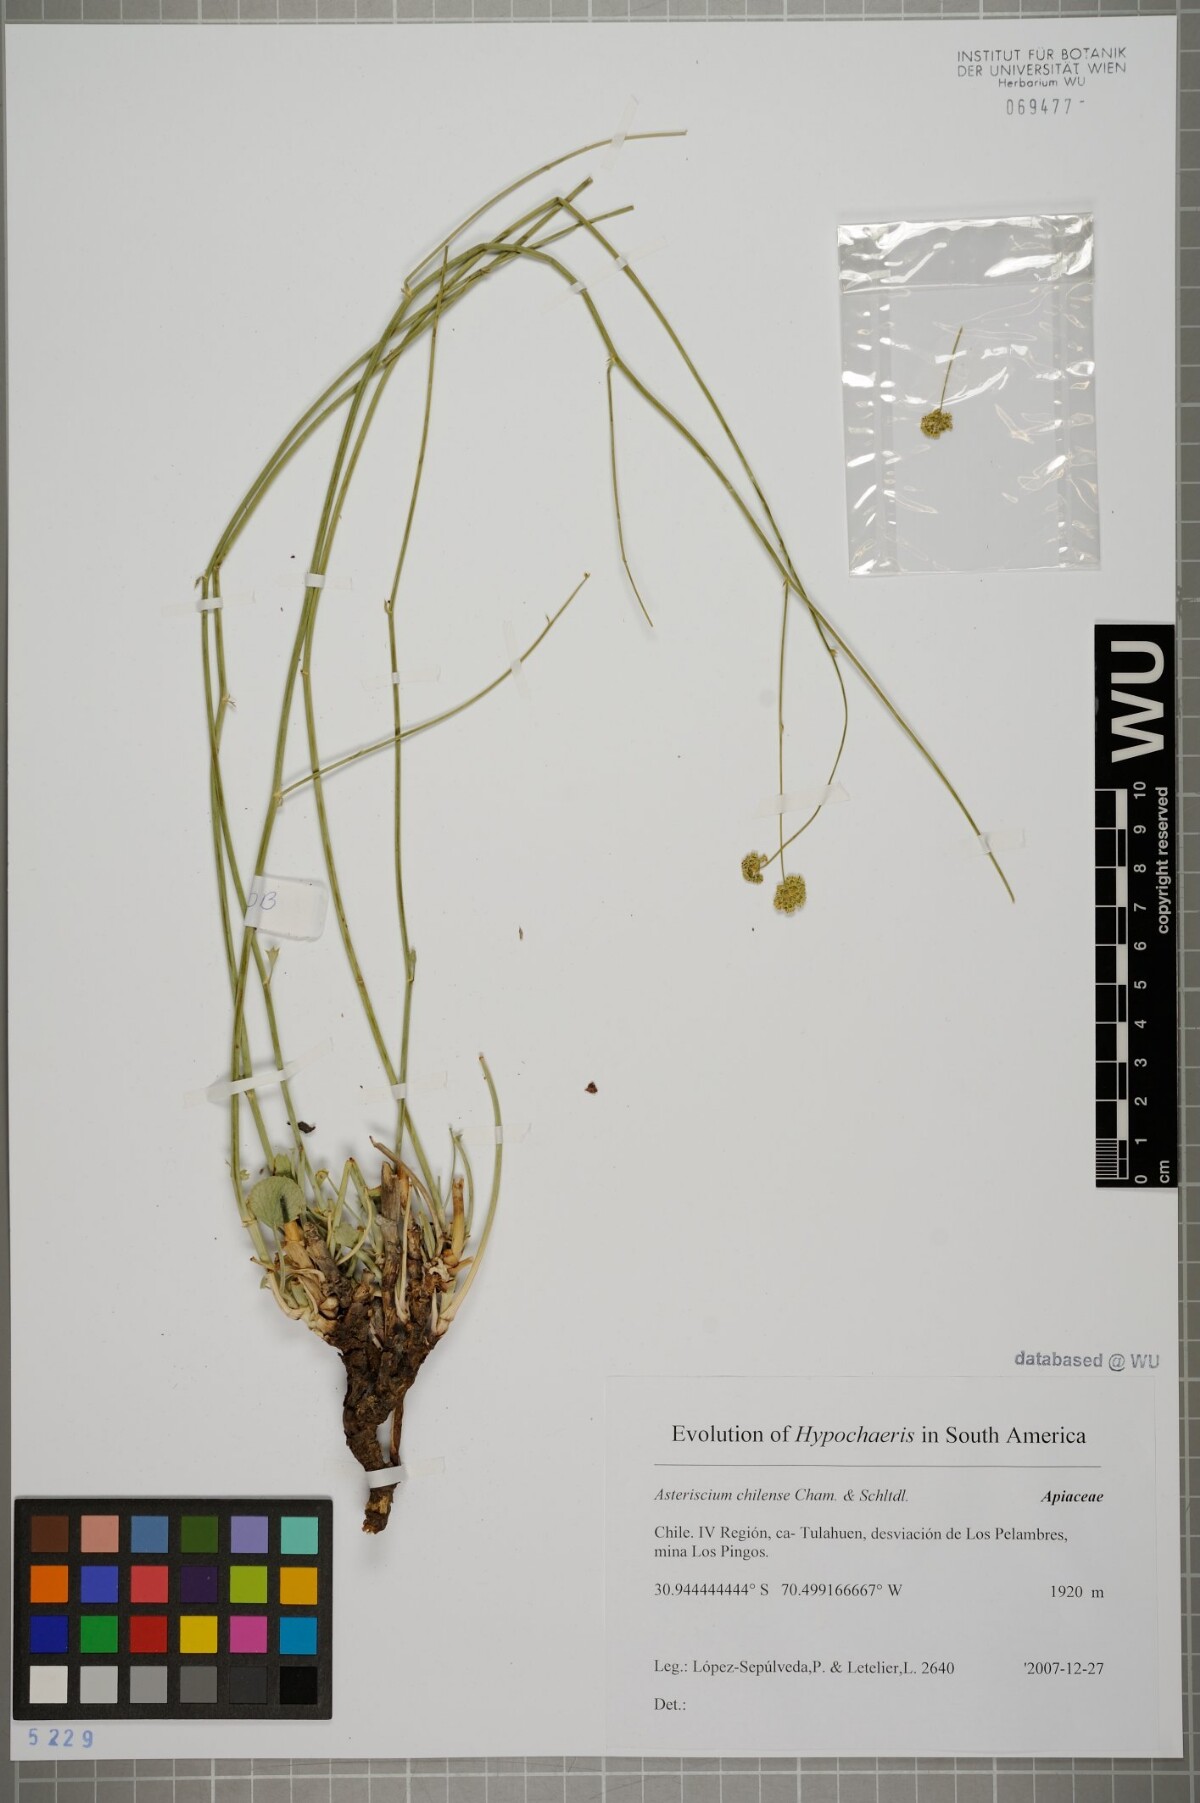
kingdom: Plantae
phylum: Tracheophyta
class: Magnoliopsida
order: Apiales
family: Apiaceae
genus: Asteriscium
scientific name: Asteriscium chilense
